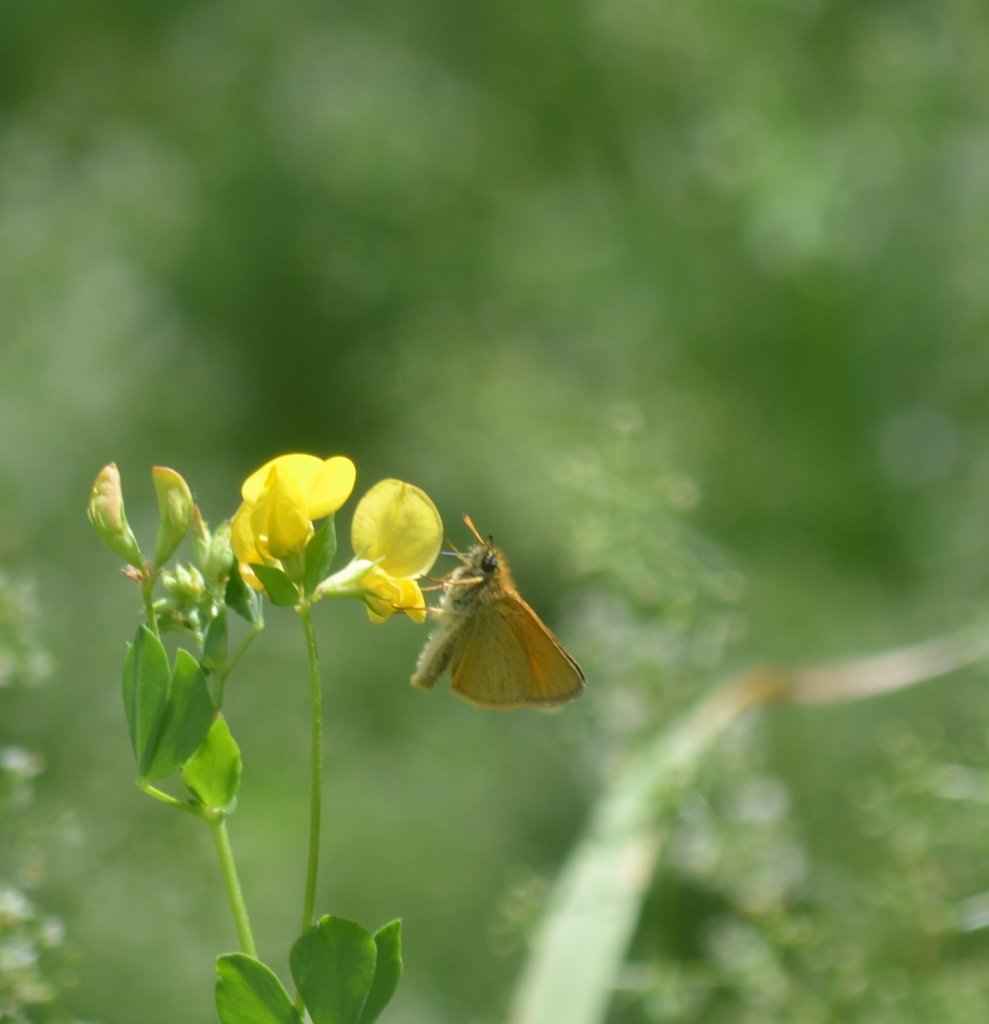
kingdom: Animalia
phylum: Arthropoda
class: Insecta
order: Lepidoptera
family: Hesperiidae
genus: Thymelicus
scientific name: Thymelicus lineola
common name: European Skipper
